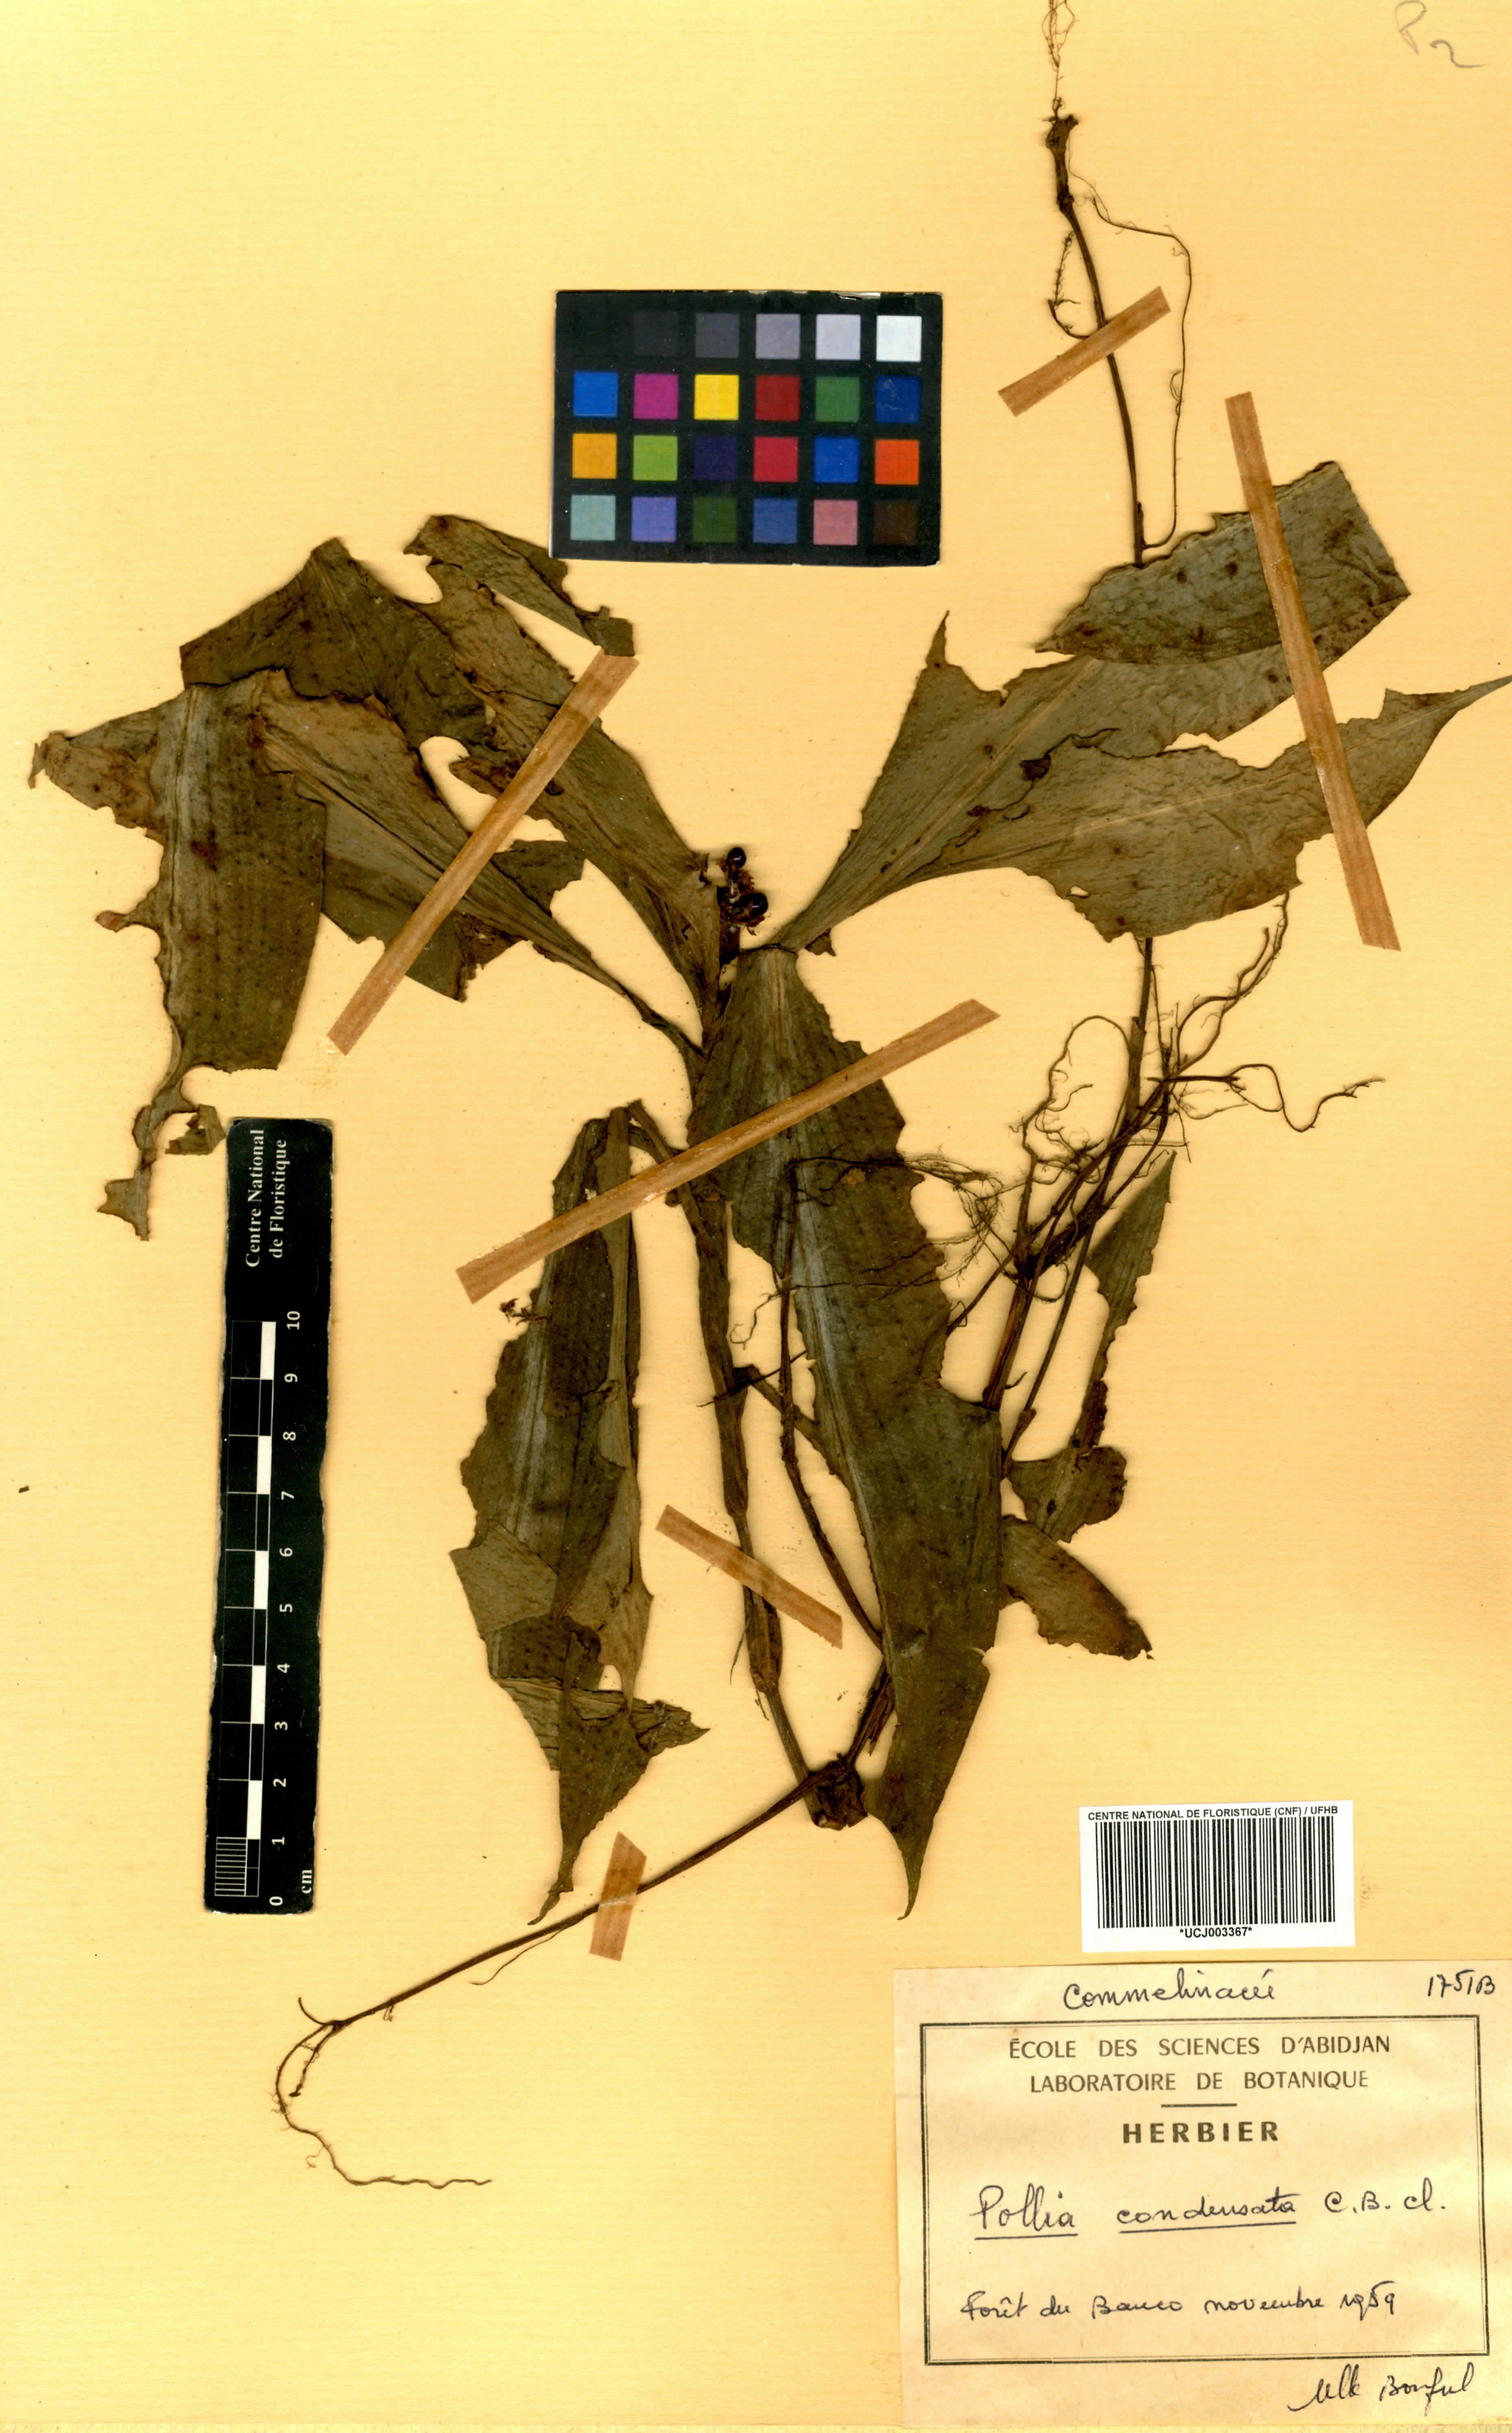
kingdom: Plantae
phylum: Tracheophyta
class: Liliopsida
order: Commelinales
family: Commelinaceae
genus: Pollia
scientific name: Pollia condensata
